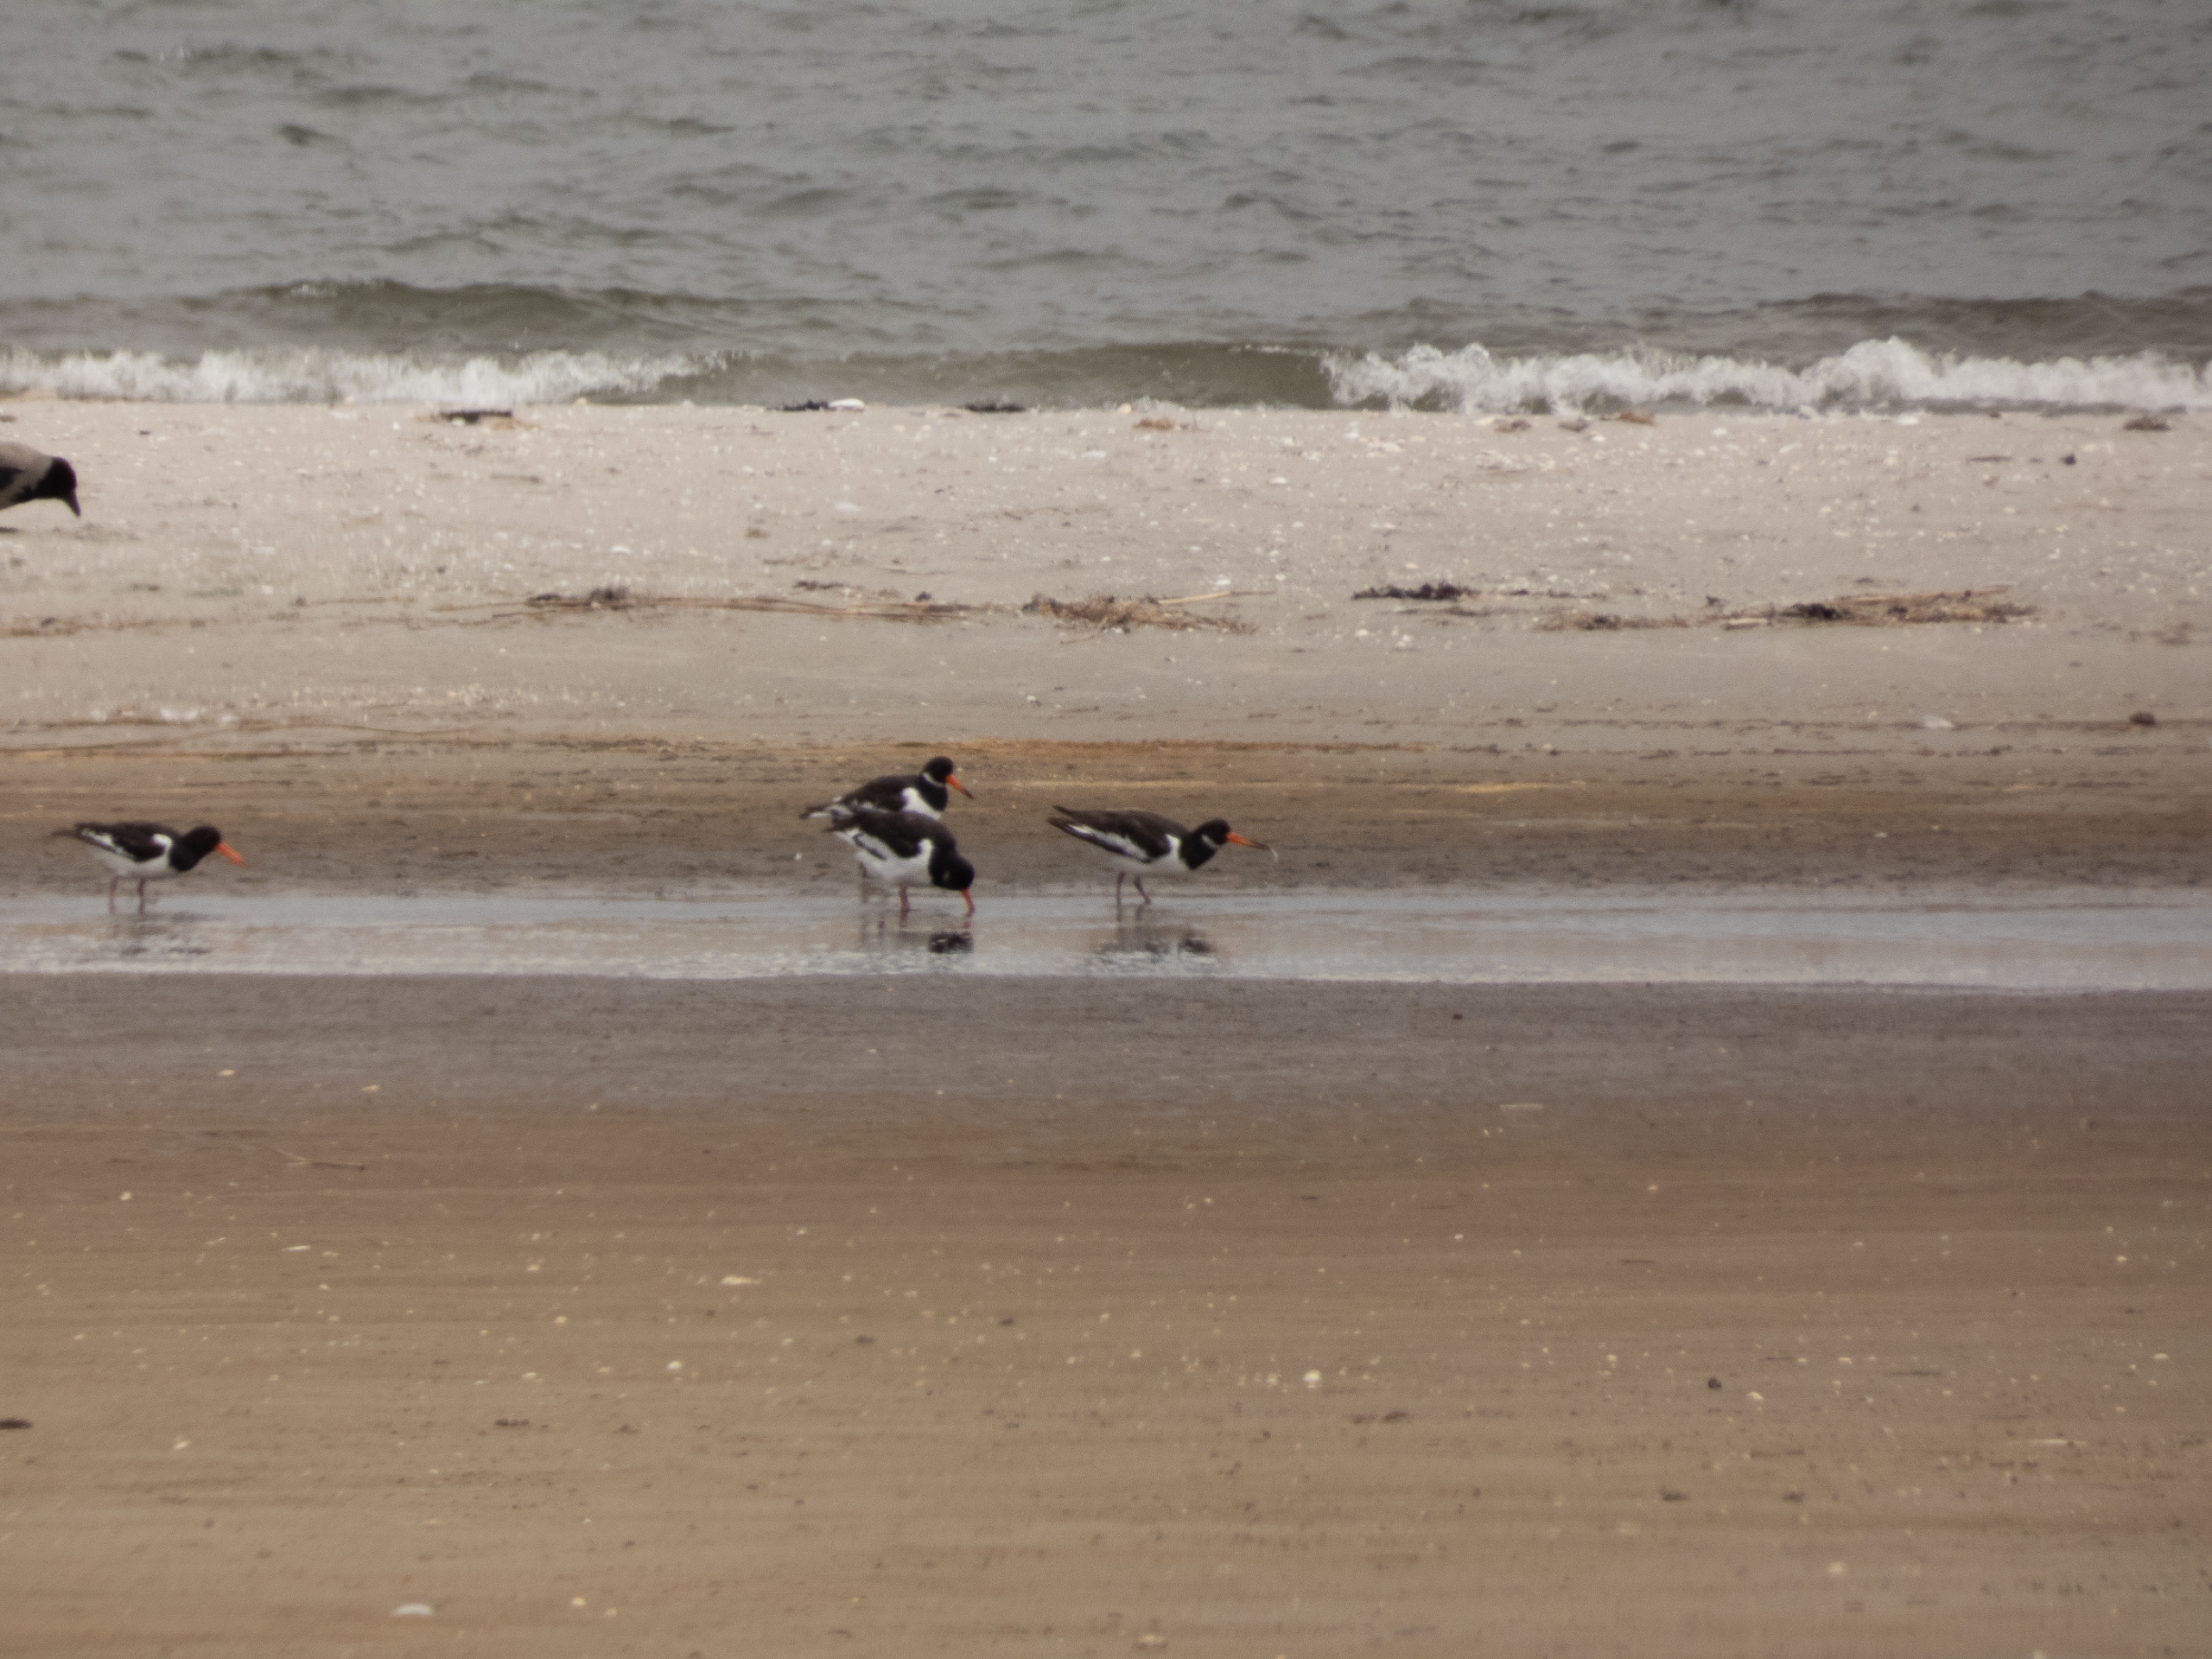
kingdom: Animalia
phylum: Chordata
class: Aves
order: Charadriiformes
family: Haematopodidae
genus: Haematopus
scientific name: Haematopus ostralegus
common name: Strandskade
